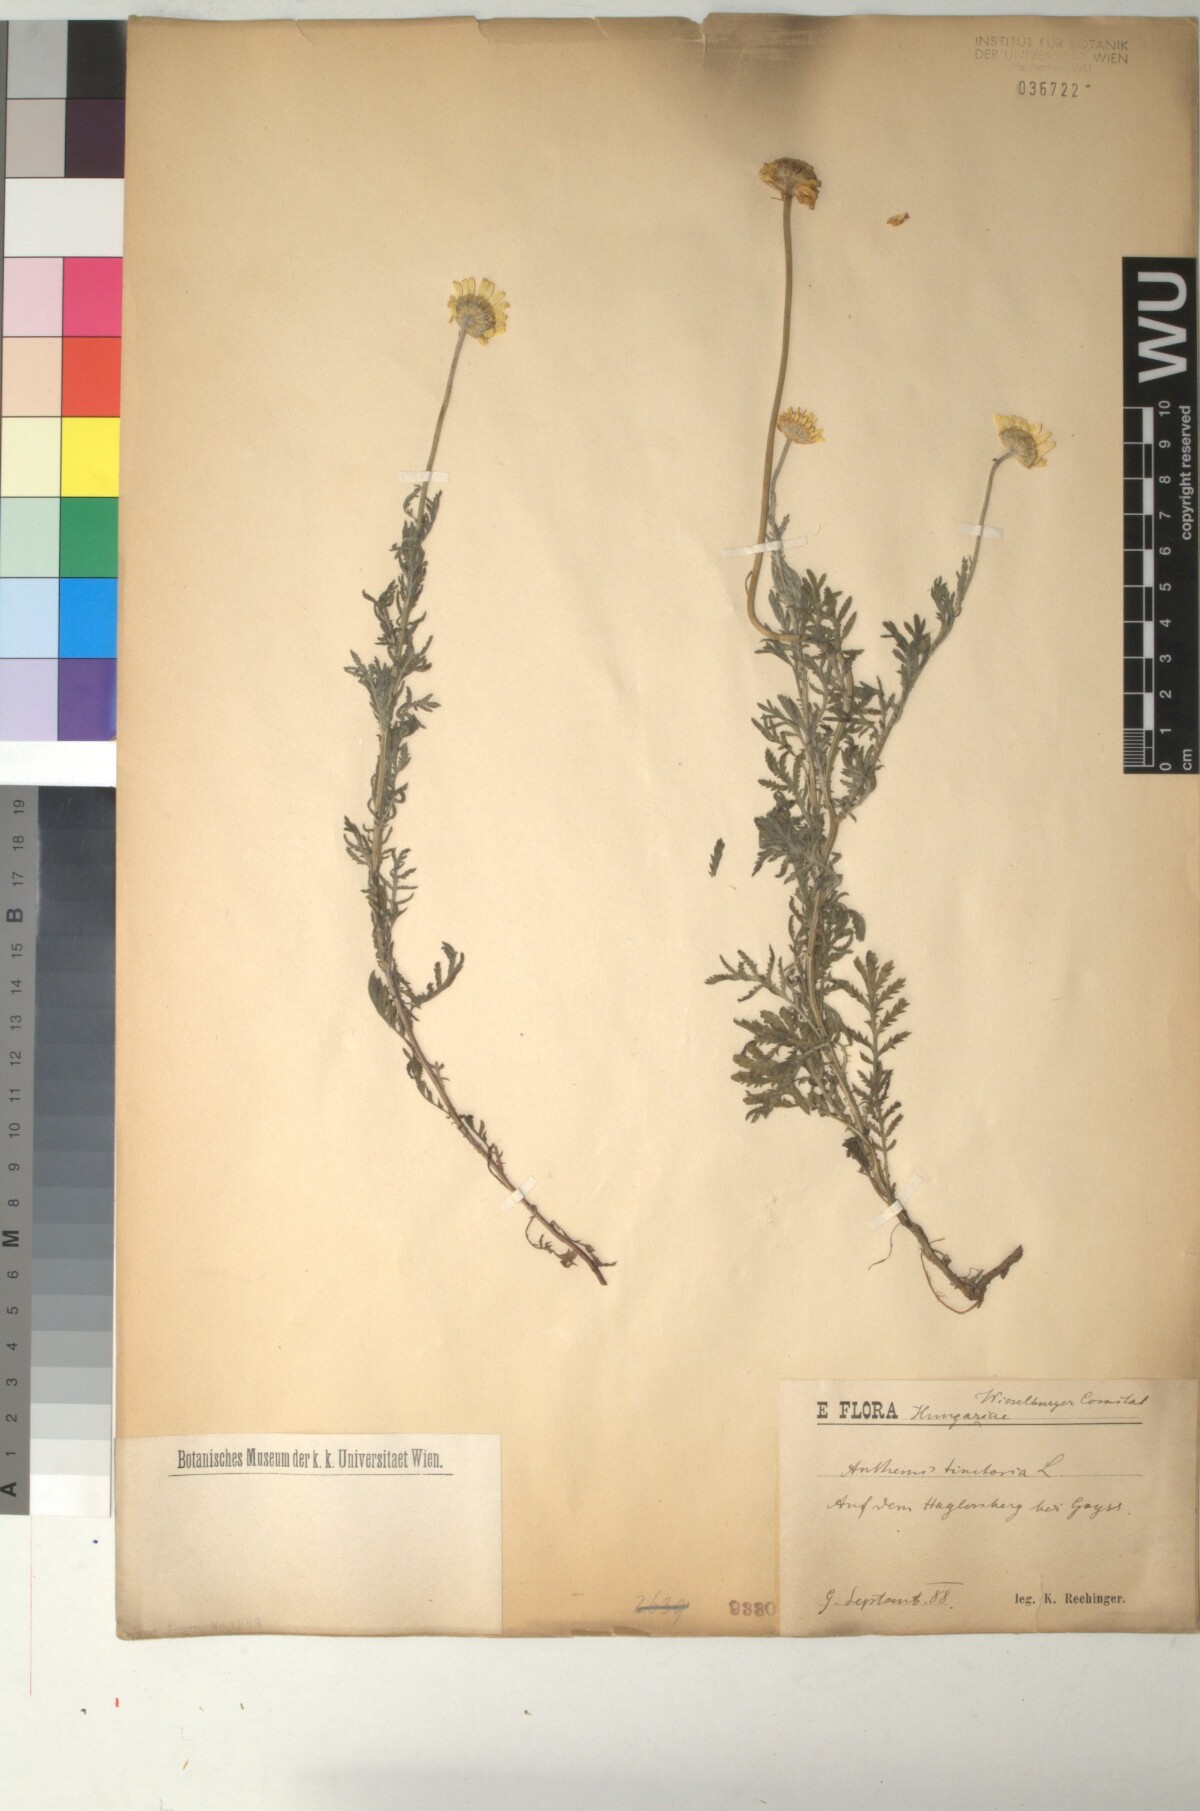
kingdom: Plantae
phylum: Tracheophyta
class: Magnoliopsida
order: Asterales
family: Asteraceae
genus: Cota
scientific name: Cota tinctoria
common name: Golden chamomile
